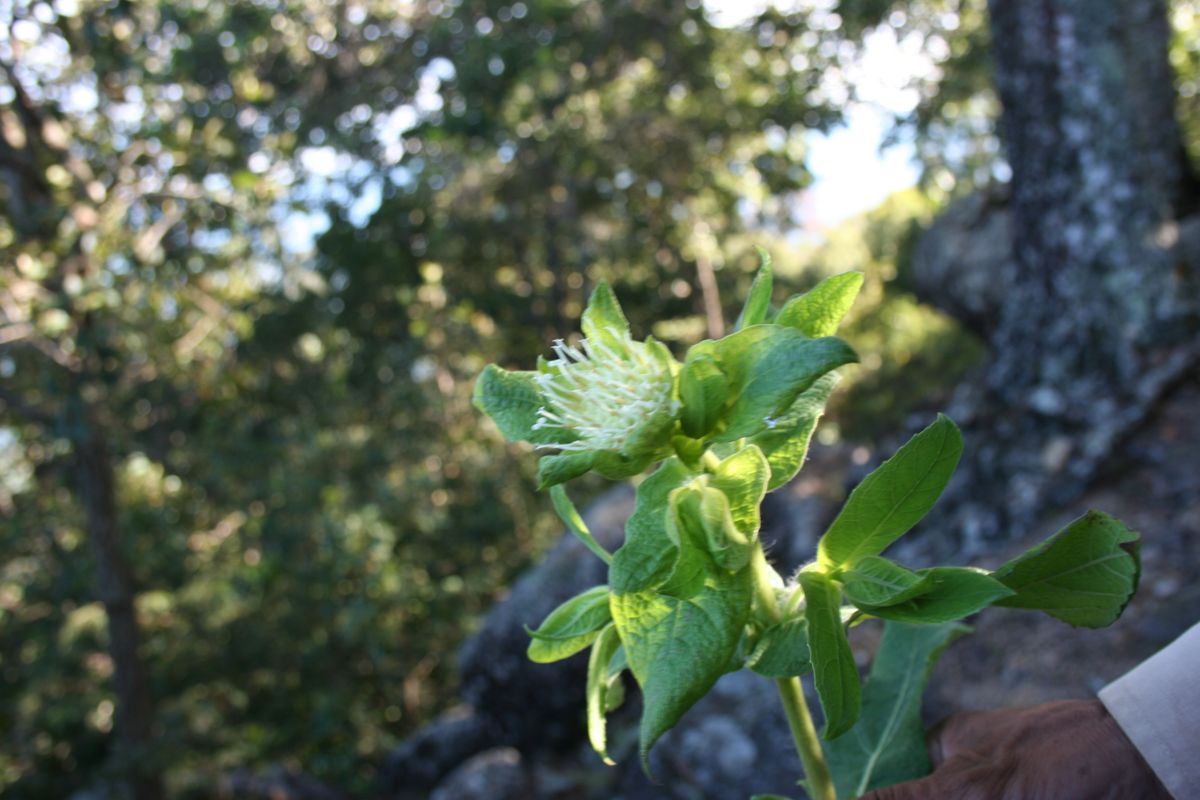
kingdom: Plantae
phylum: Tracheophyta
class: Magnoliopsida
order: Asterales
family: Asteraceae
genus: Lagascea
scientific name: Lagascea helianthifolia
